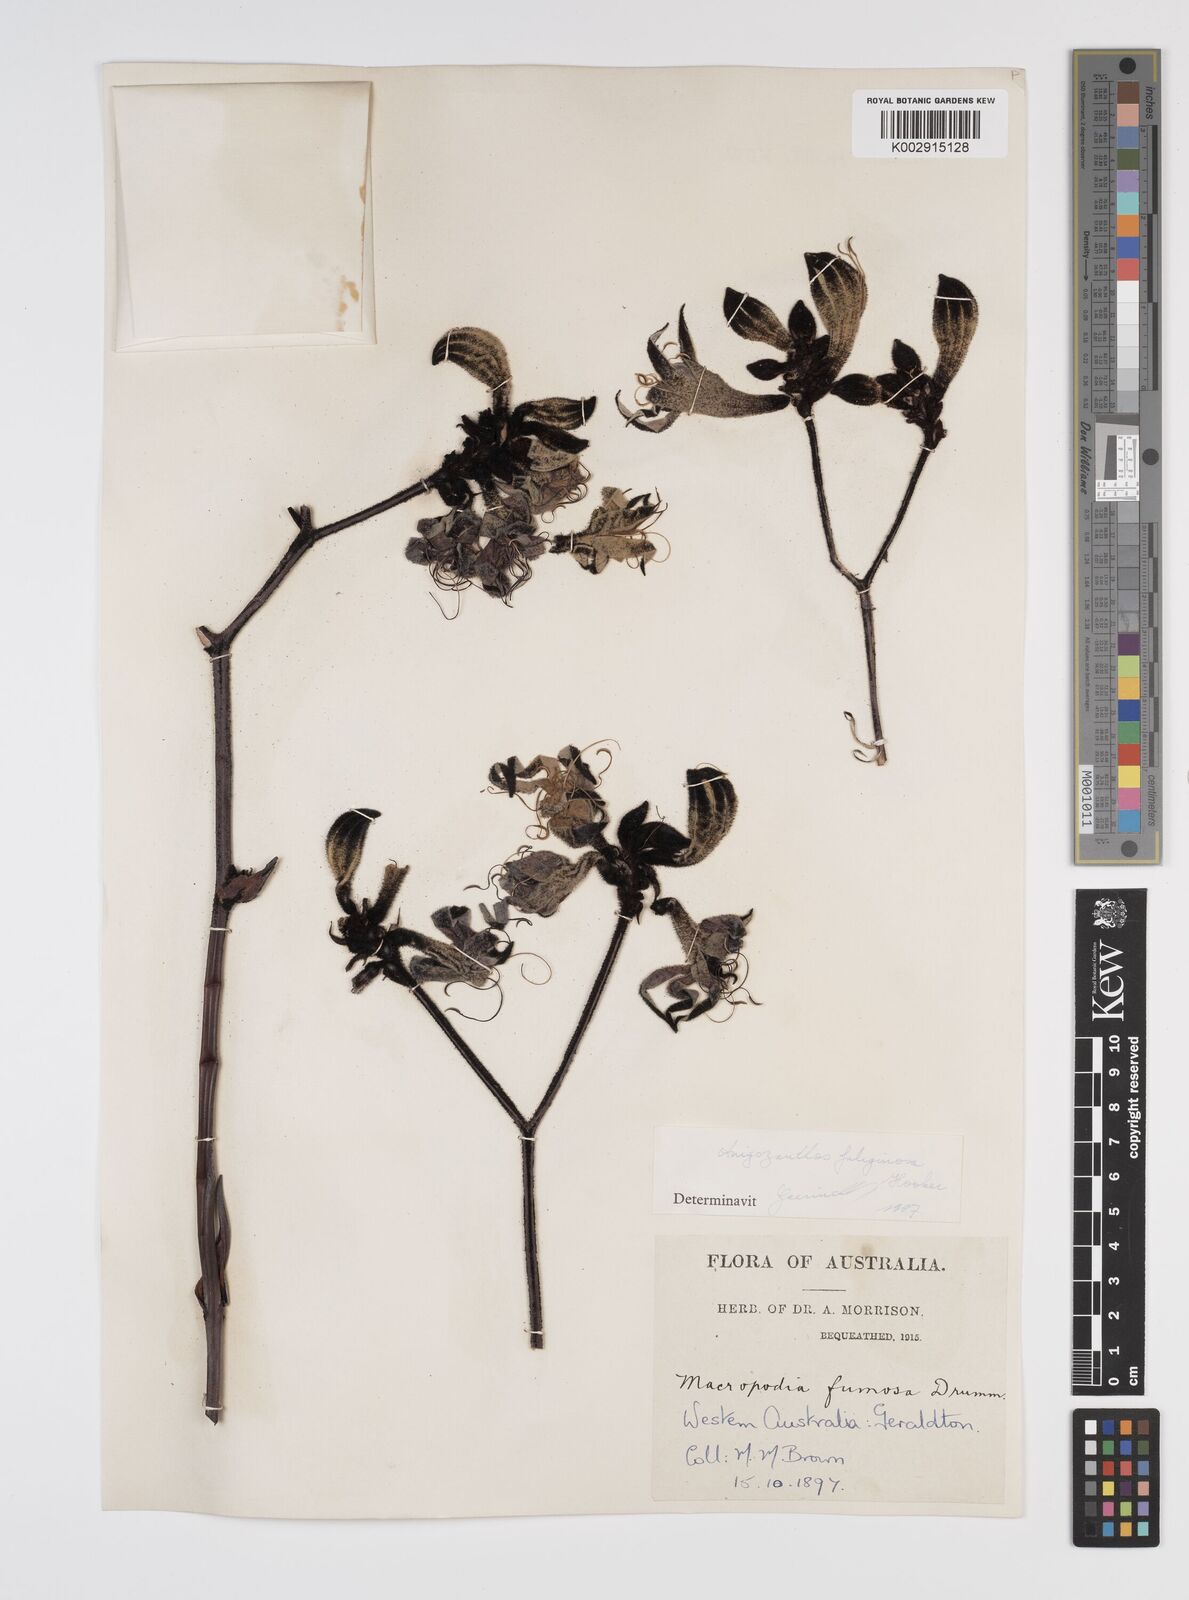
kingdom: Plantae
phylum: Tracheophyta
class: Liliopsida
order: Commelinales
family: Haemodoraceae
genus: Macropidia
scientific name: Macropidia fuliginosa
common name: Black kangaroo-paw
